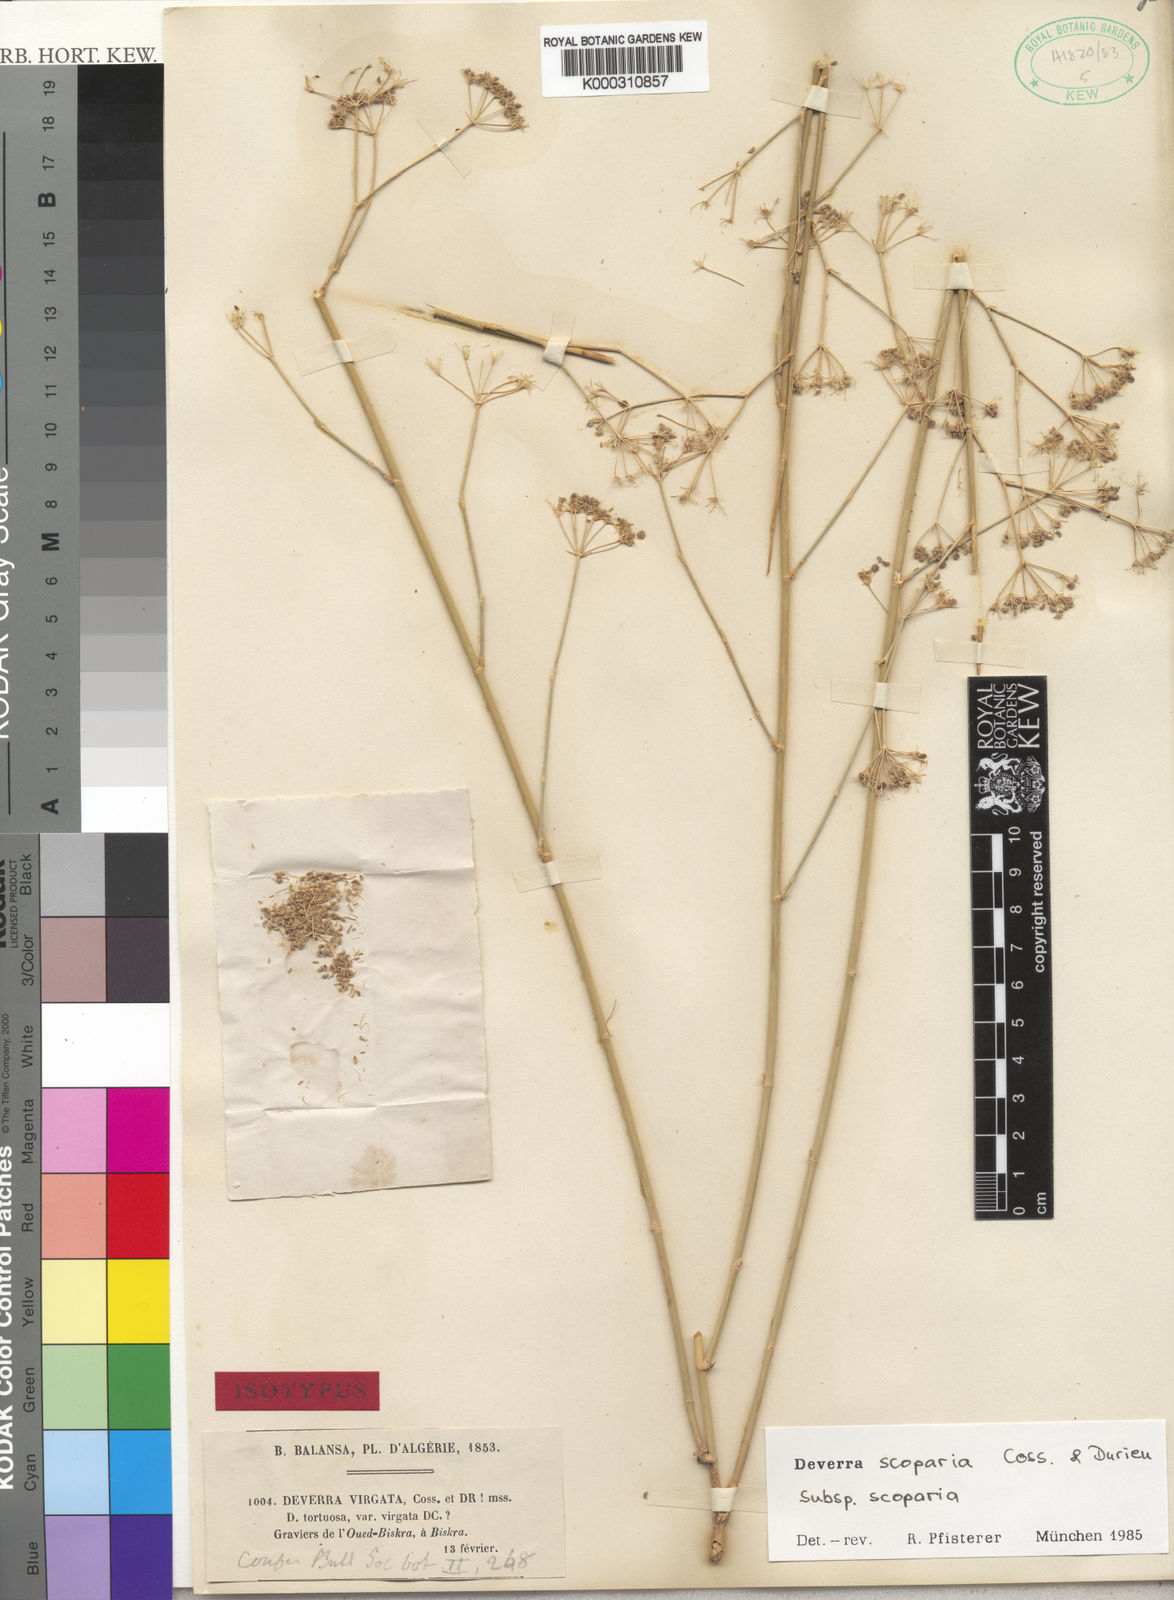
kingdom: Plantae
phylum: Tracheophyta
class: Magnoliopsida
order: Apiales
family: Apiaceae
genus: Deverra
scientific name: Deverra scoparia
